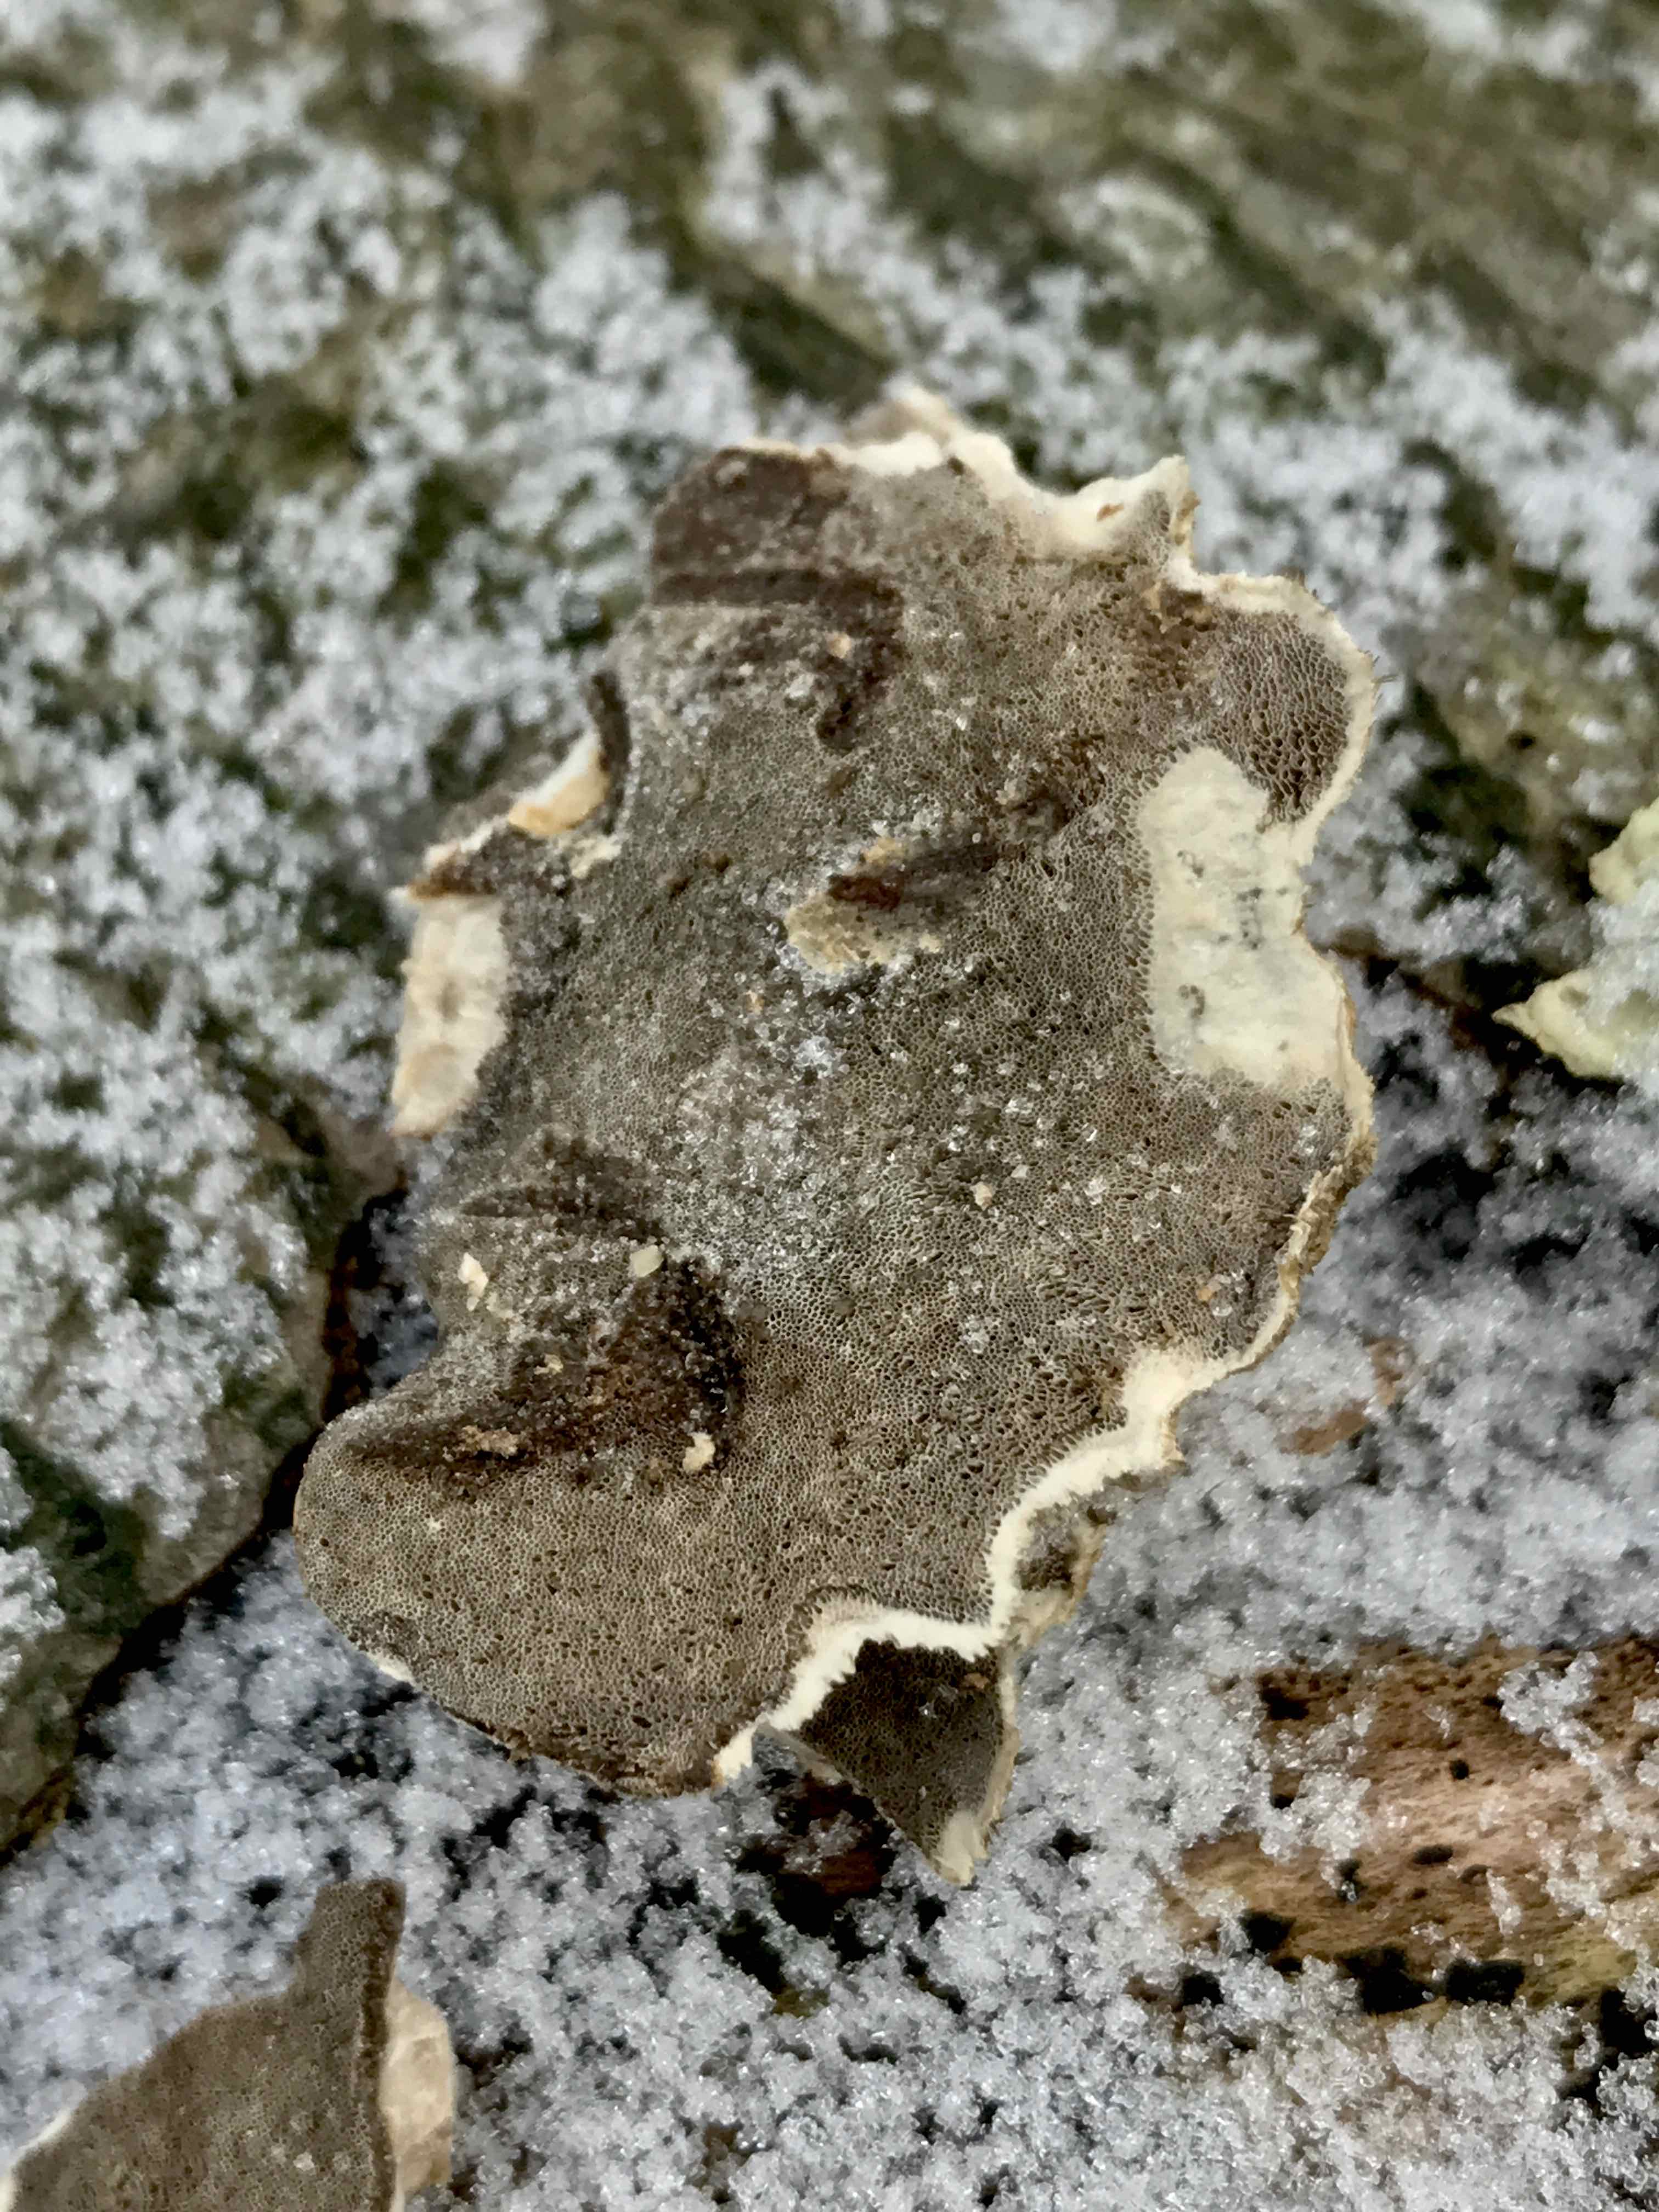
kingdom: Fungi
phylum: Basidiomycota
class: Agaricomycetes
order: Polyporales
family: Phanerochaetaceae
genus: Bjerkandera
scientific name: Bjerkandera adusta
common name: sveden sodporesvamp
